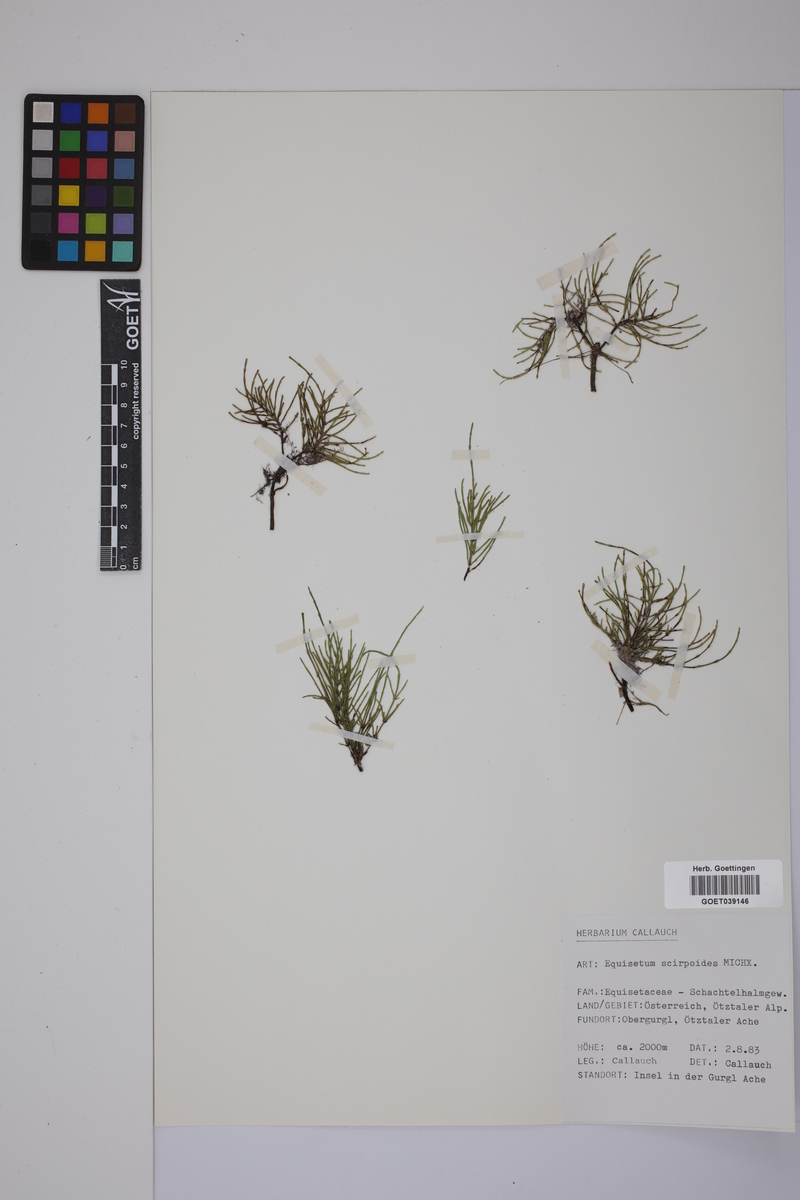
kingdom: Plantae
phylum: Tracheophyta
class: Polypodiopsida
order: Equisetales
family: Equisetaceae
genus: Equisetum
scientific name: Equisetum scirpoides
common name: Delicate horsetail
